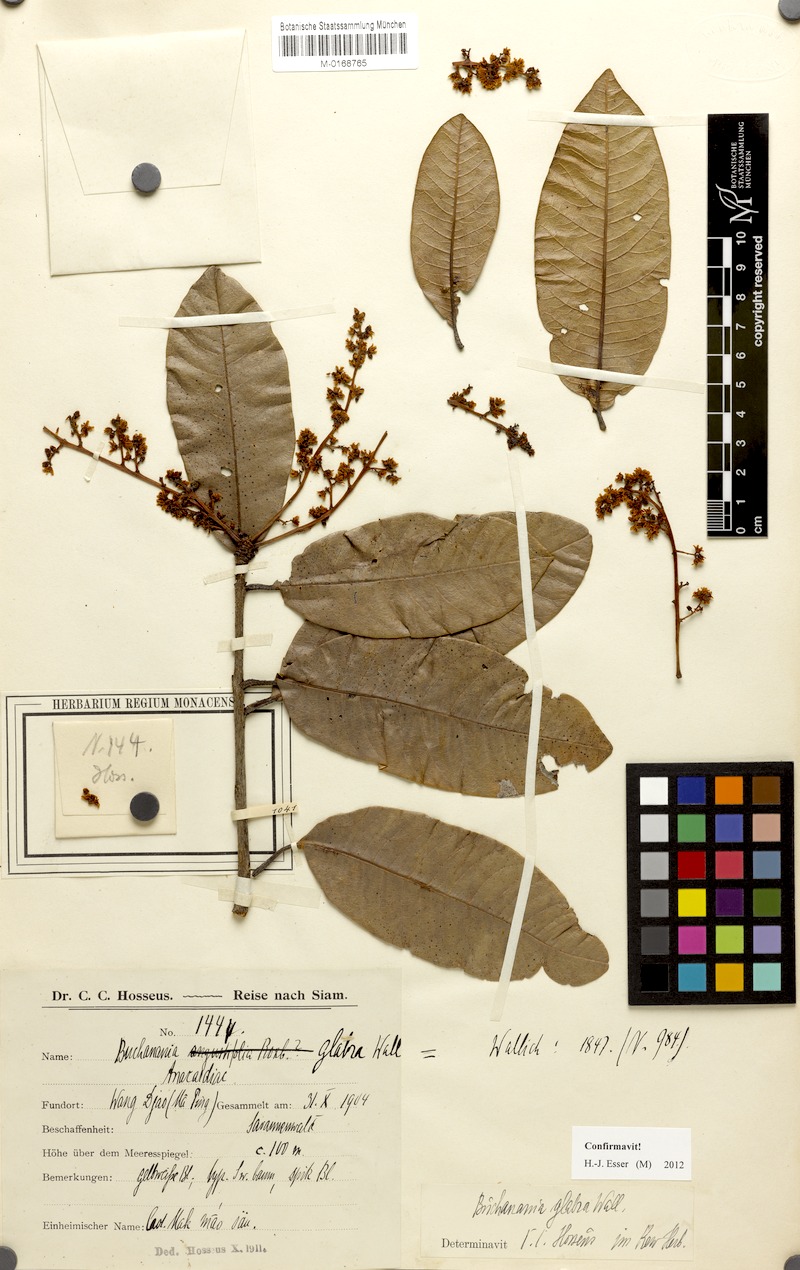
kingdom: Plantae
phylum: Tracheophyta
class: Magnoliopsida
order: Sapindales
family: Anacardiaceae
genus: Buchanania
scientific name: Buchanania glabra
